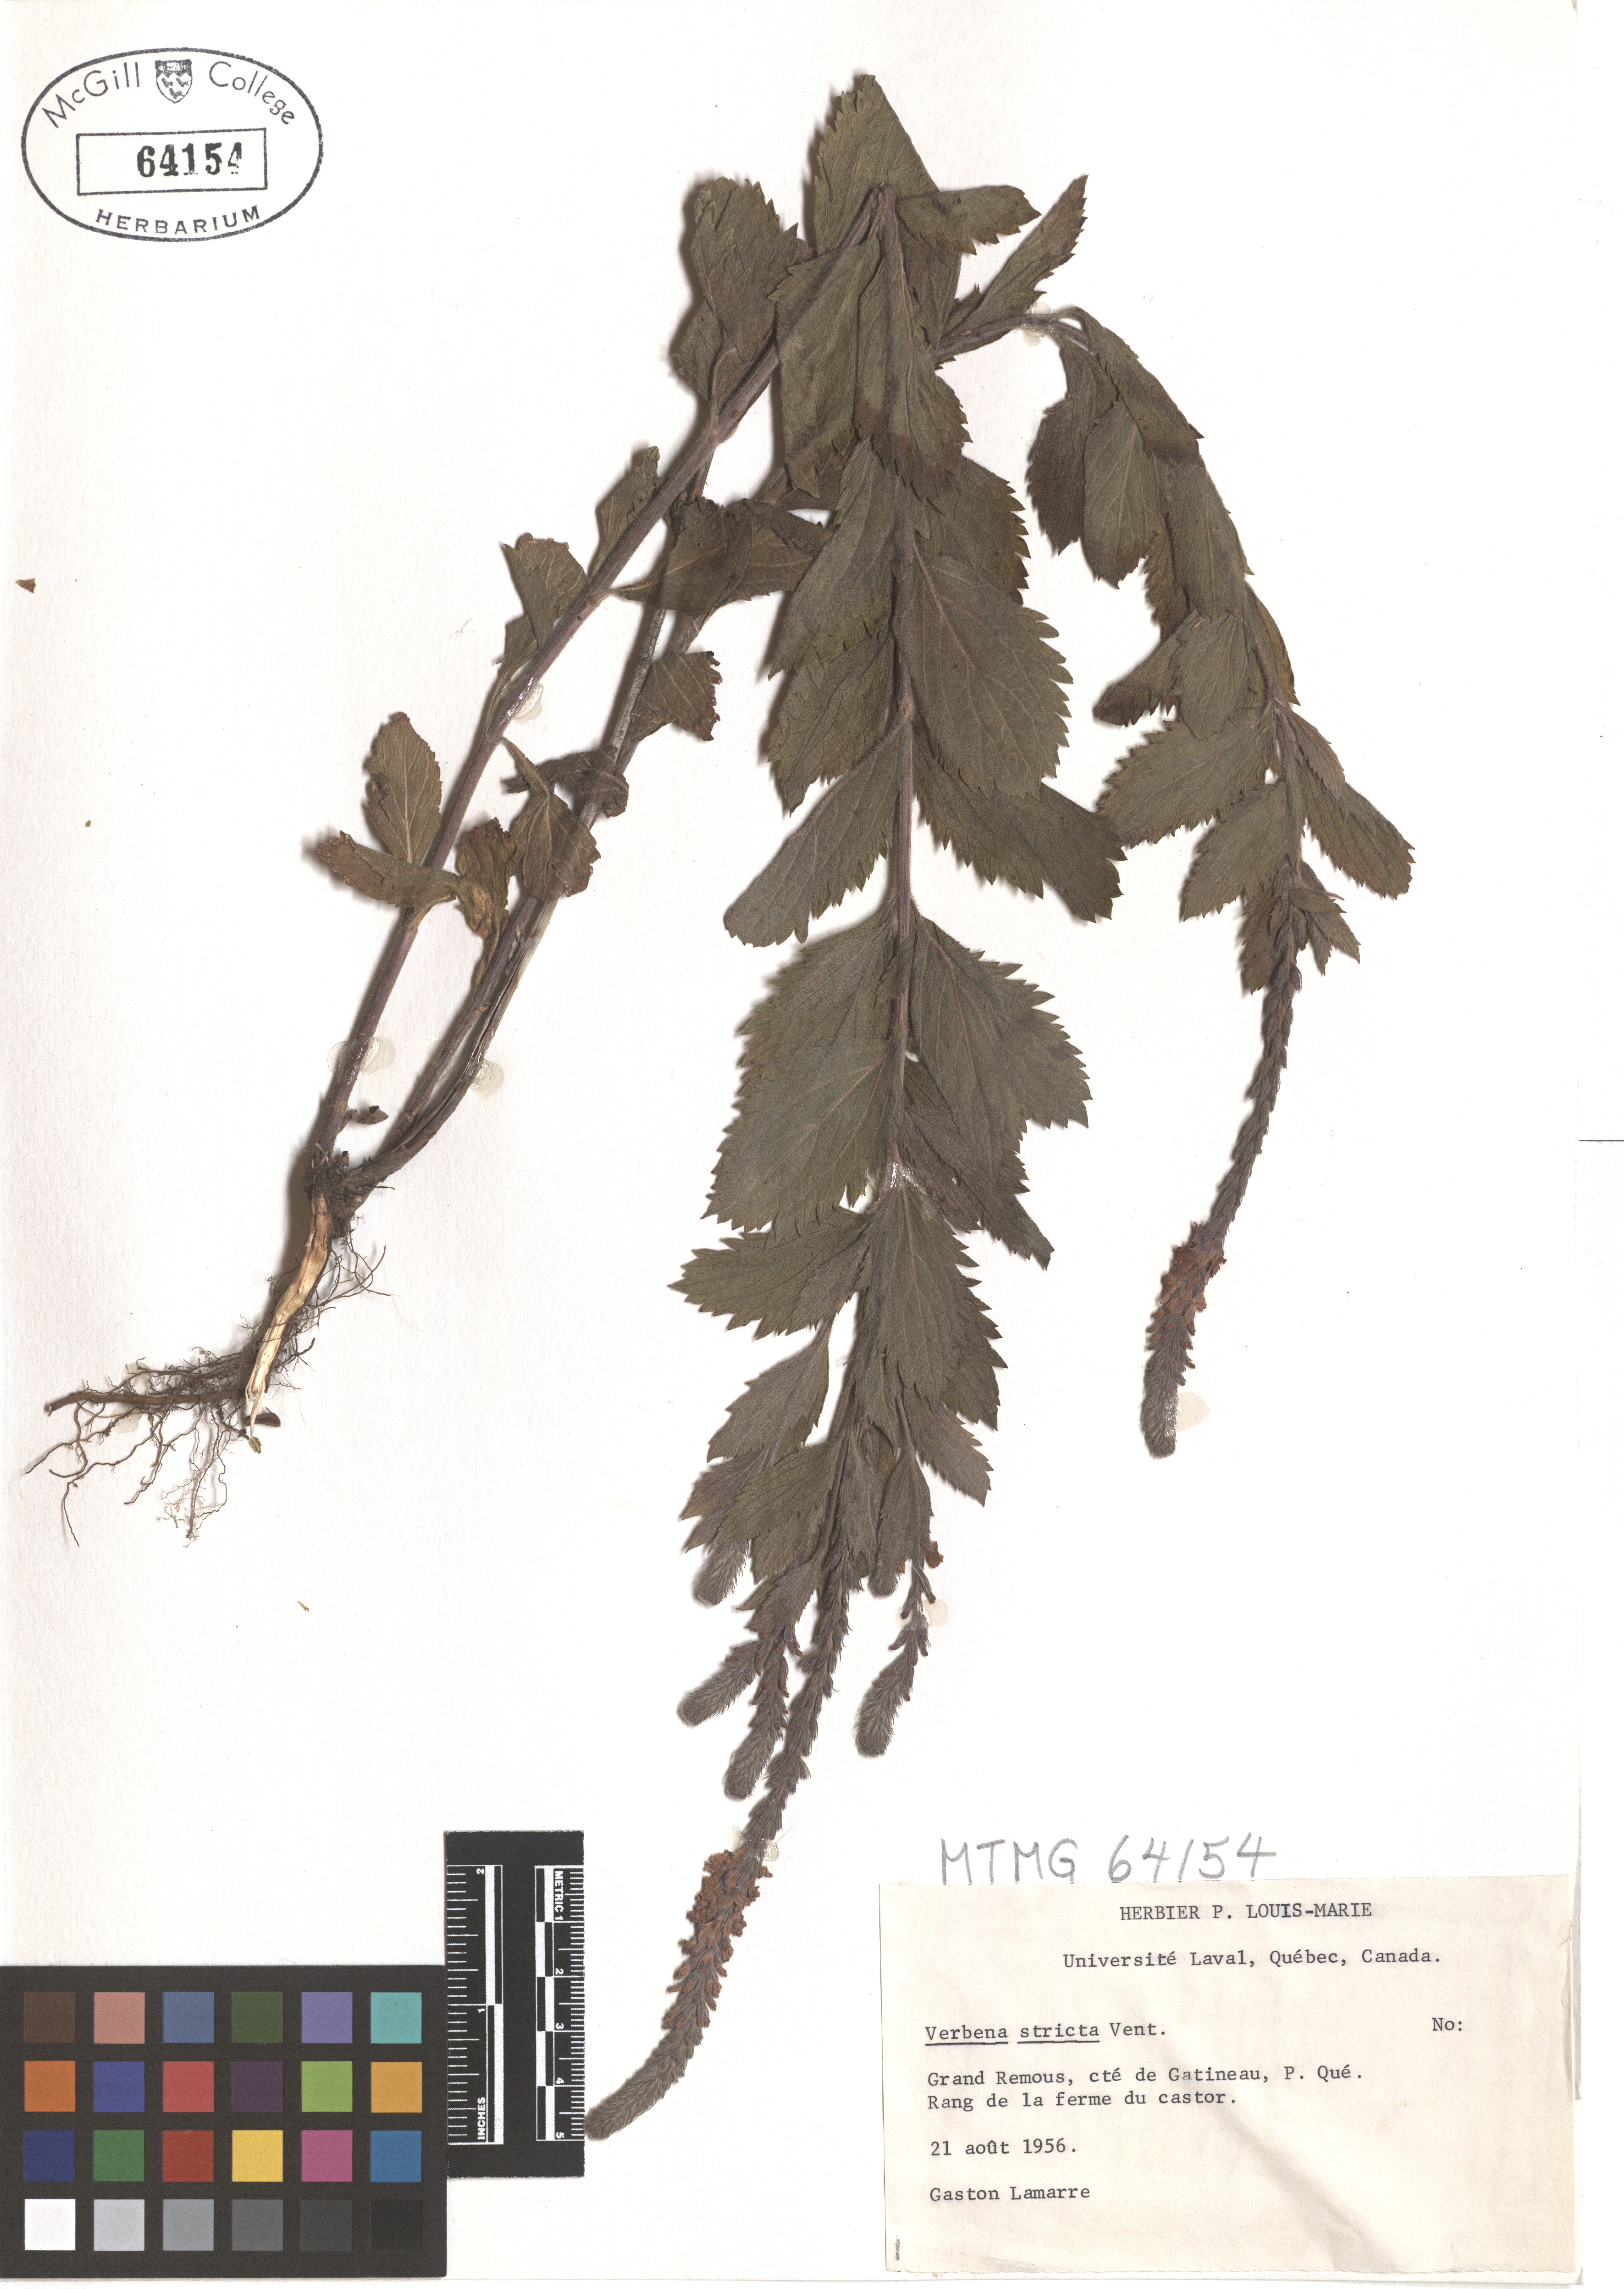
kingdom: Plantae
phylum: Tracheophyta
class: Magnoliopsida
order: Lamiales
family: Verbenaceae
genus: Verbena
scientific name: Verbena stricta
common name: Hoary vervain
